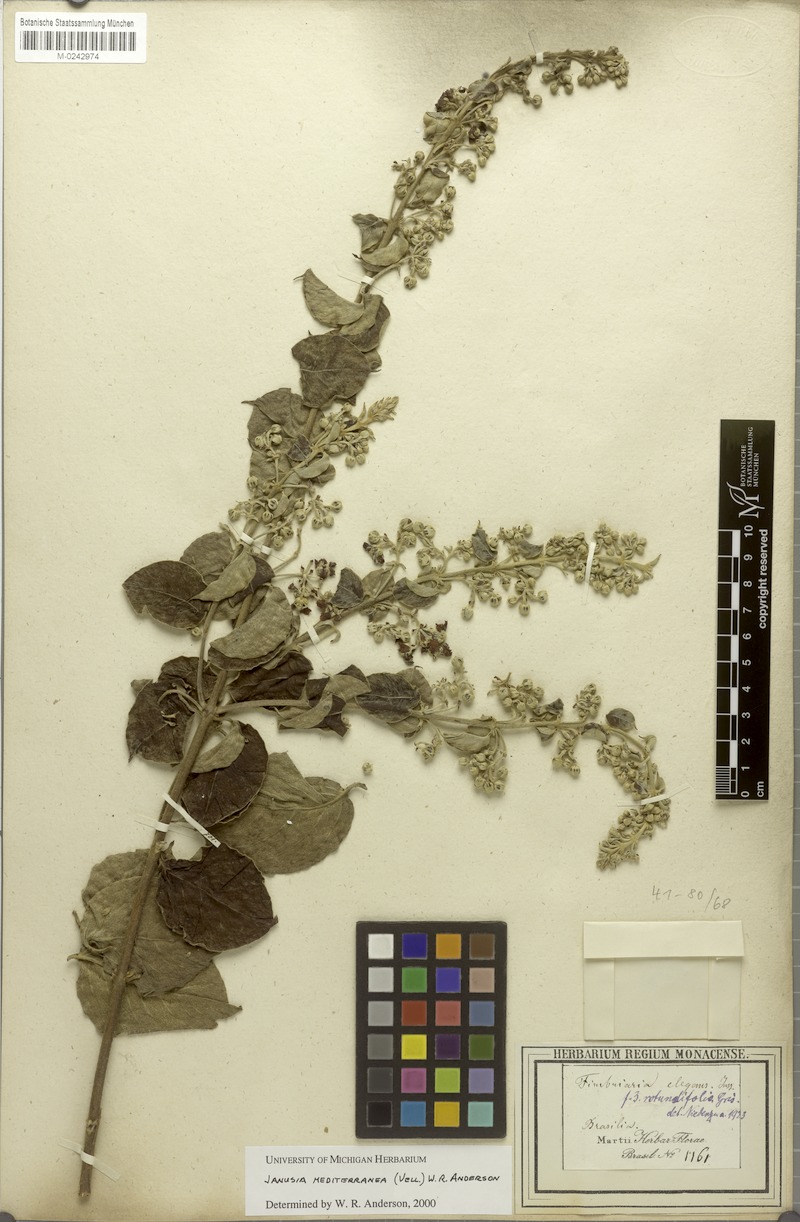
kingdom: Plantae
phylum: Tracheophyta
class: Magnoliopsida
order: Malpighiales
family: Malpighiaceae
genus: Janusia
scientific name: Janusia mediterranea
